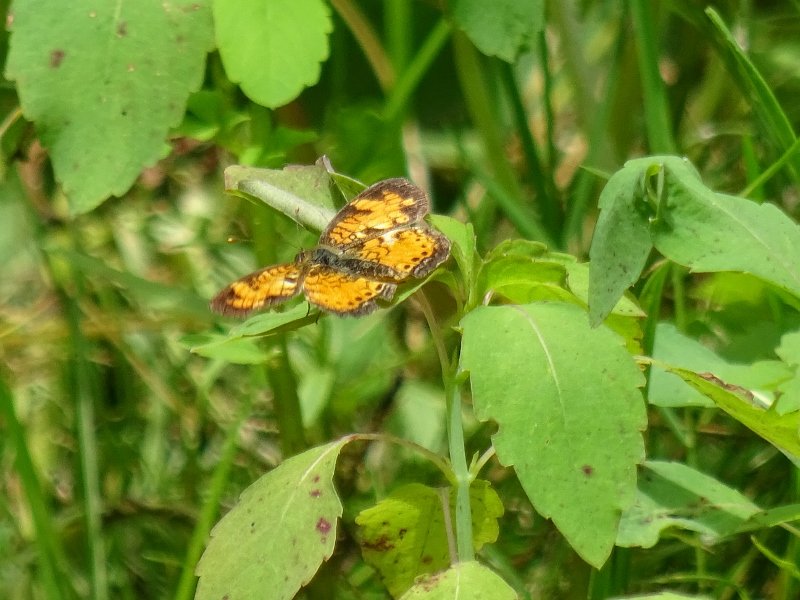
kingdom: Animalia
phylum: Arthropoda
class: Insecta
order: Lepidoptera
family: Nymphalidae
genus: Phyciodes
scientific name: Phyciodes tharos
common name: Northern Crescent
